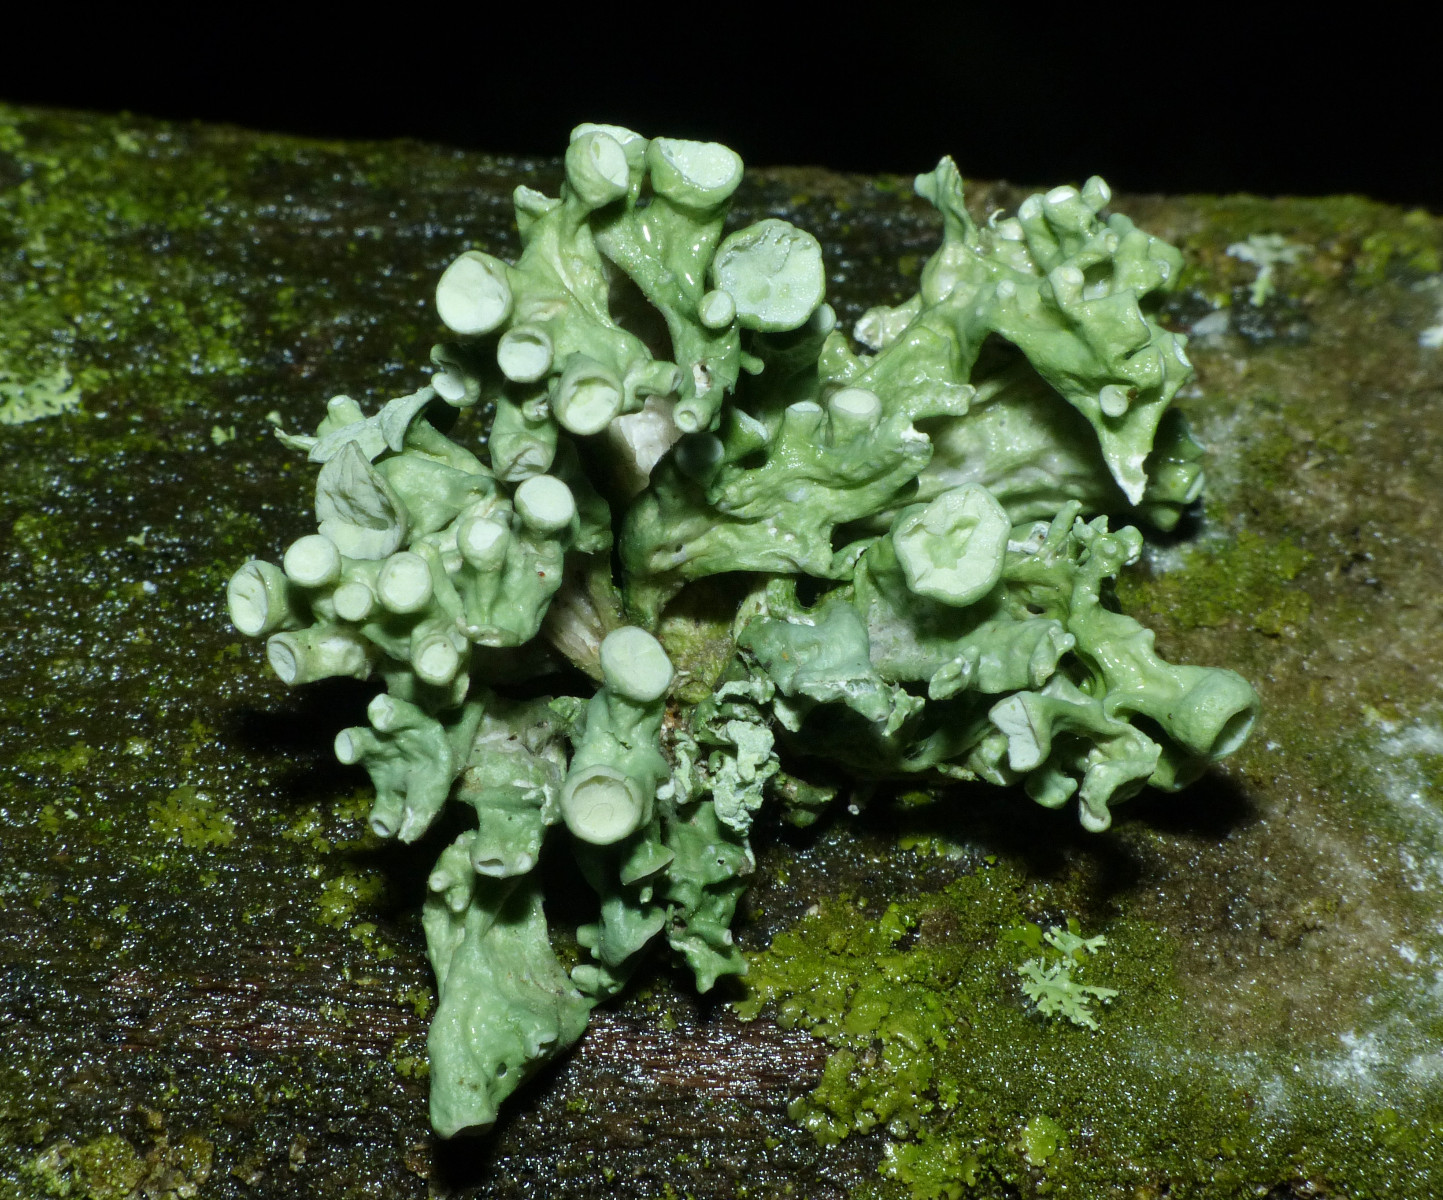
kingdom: Fungi
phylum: Ascomycota
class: Lecanoromycetes
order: Lecanorales
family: Ramalinaceae
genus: Ramalina
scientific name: Ramalina fastigiata
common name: tue-grenlav
